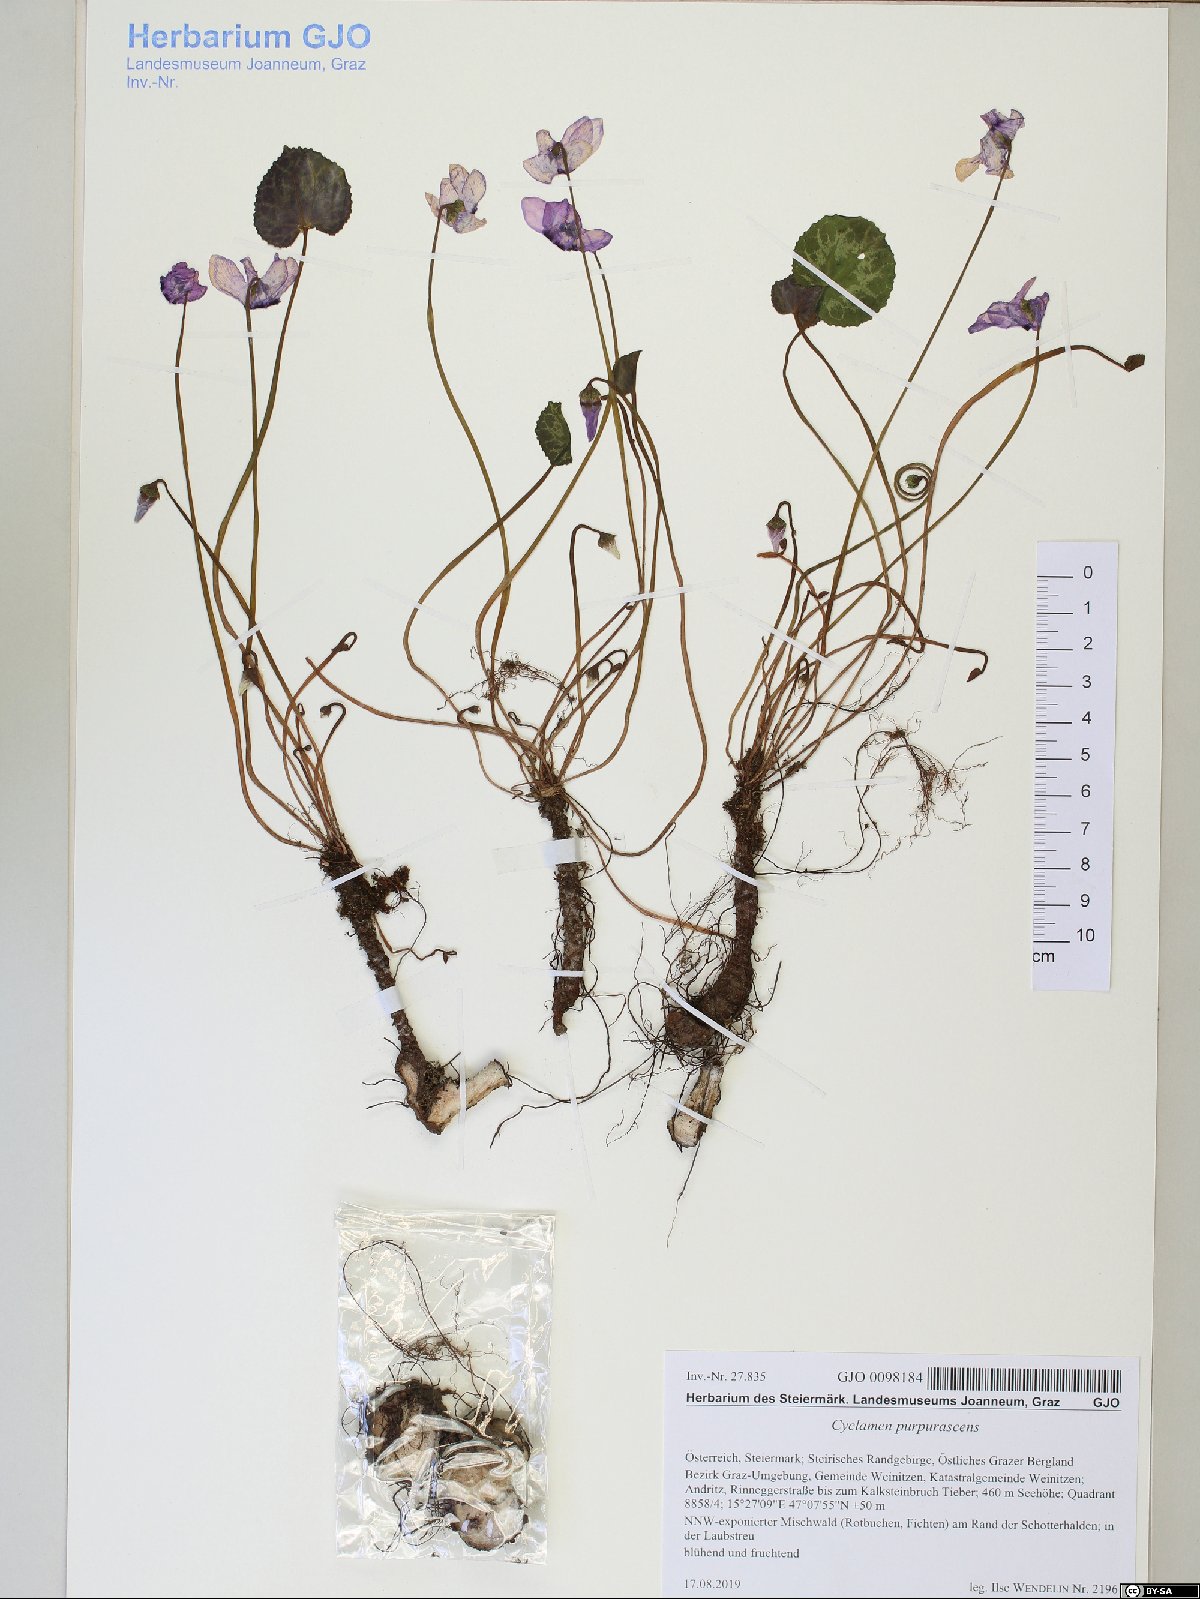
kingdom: Plantae
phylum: Tracheophyta
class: Magnoliopsida
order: Ericales
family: Primulaceae
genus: Cyclamen
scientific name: Cyclamen purpurascens
